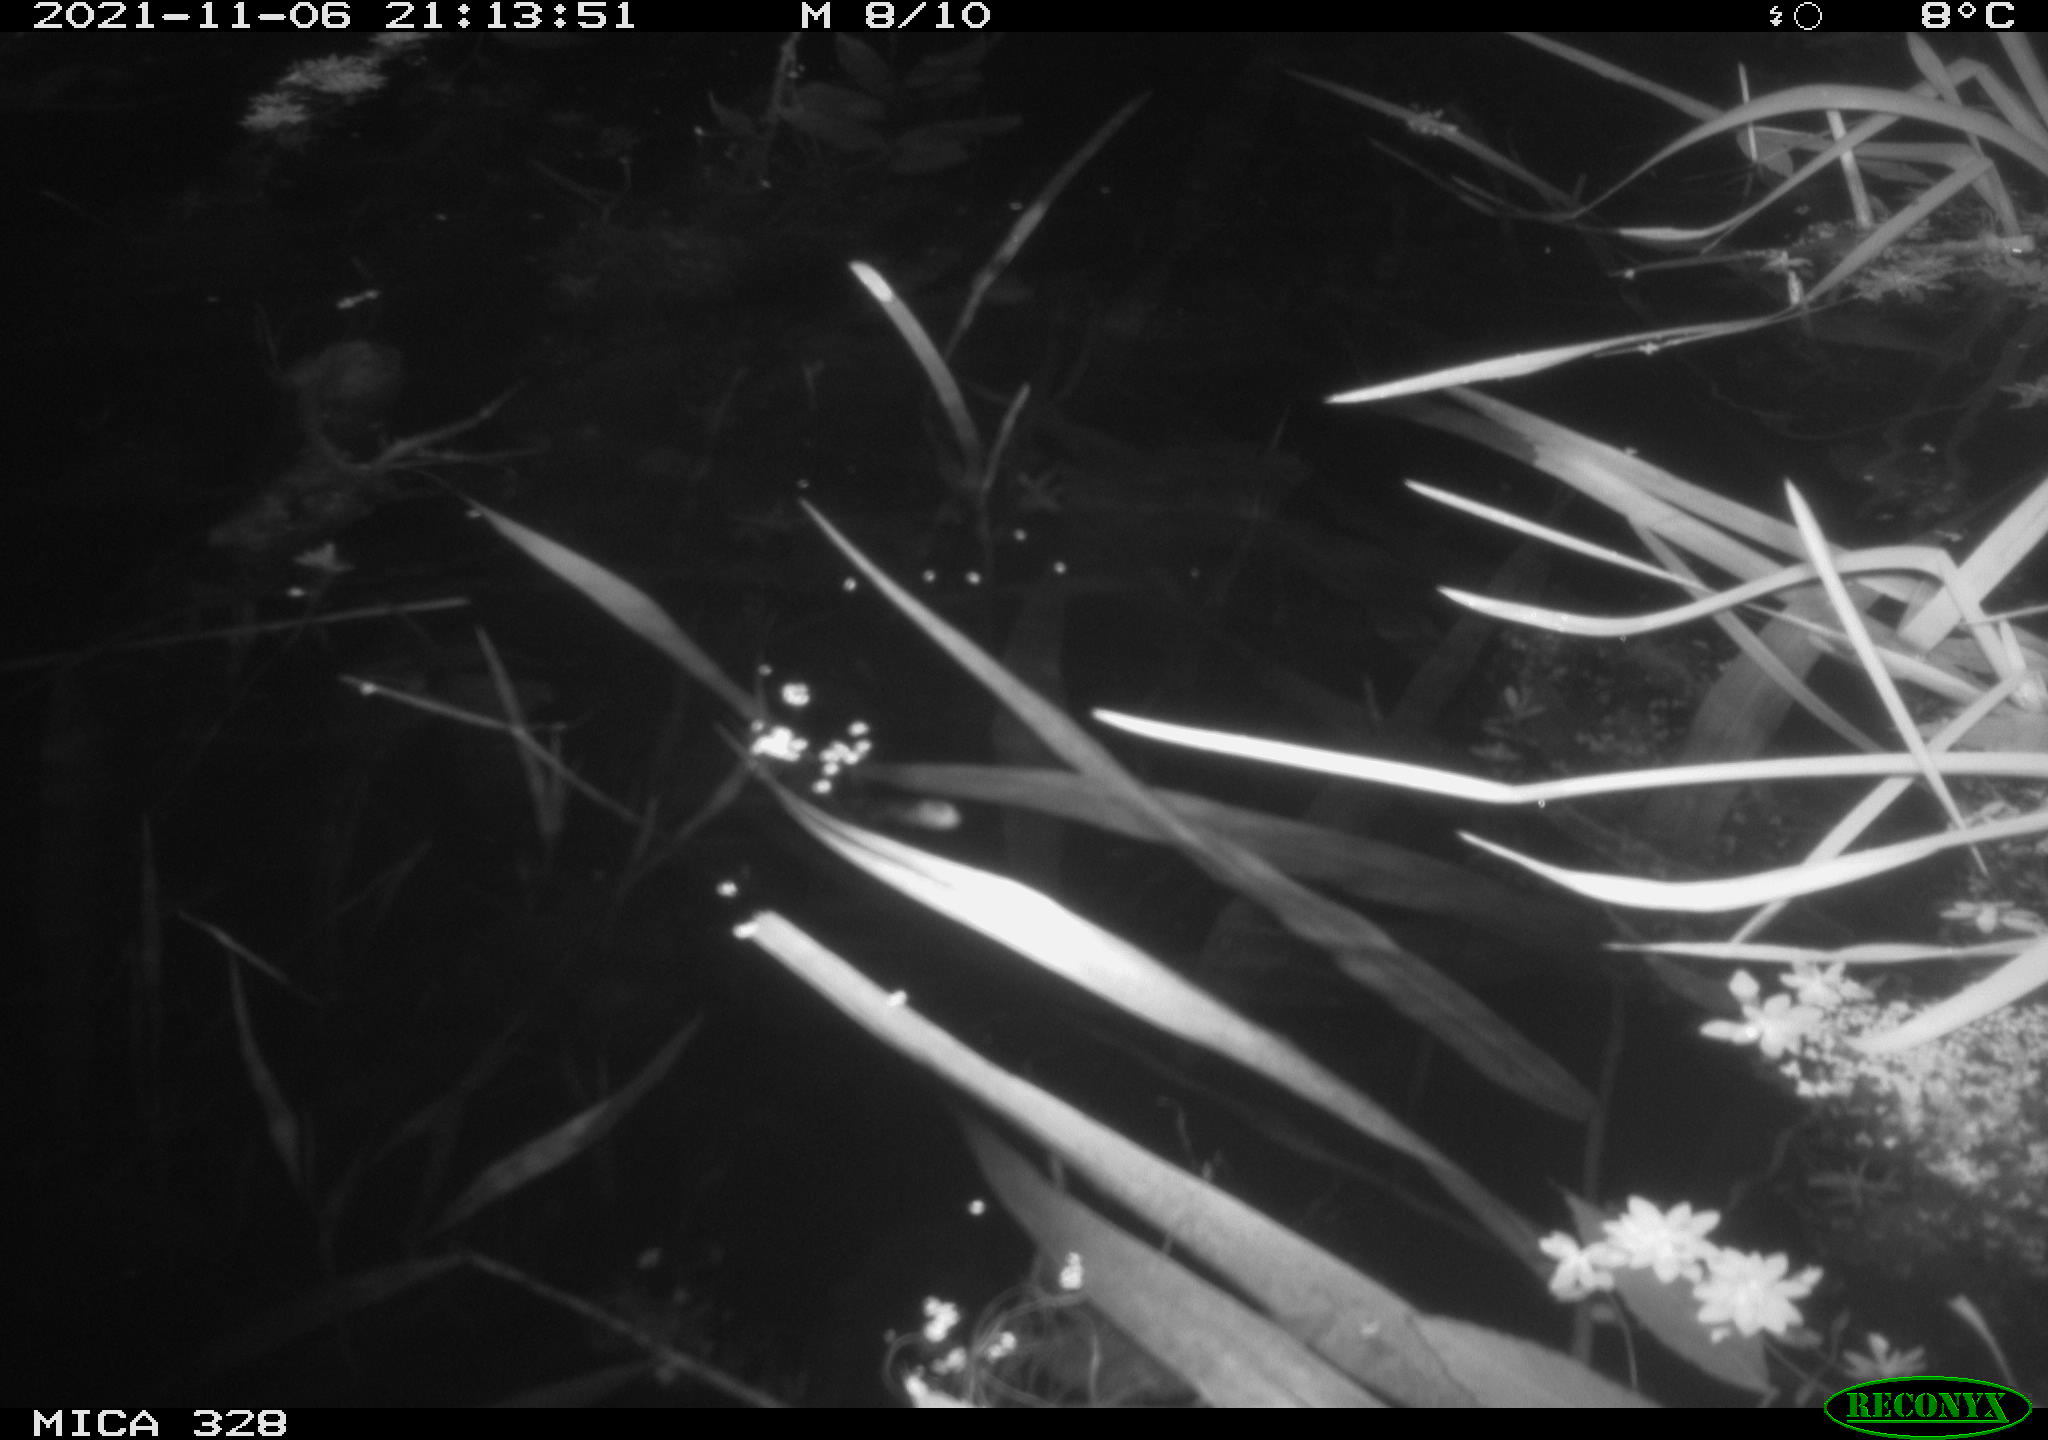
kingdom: Animalia
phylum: Chordata
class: Mammalia
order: Rodentia
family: Cricetidae
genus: Ondatra
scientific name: Ondatra zibethicus
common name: Muskrat
